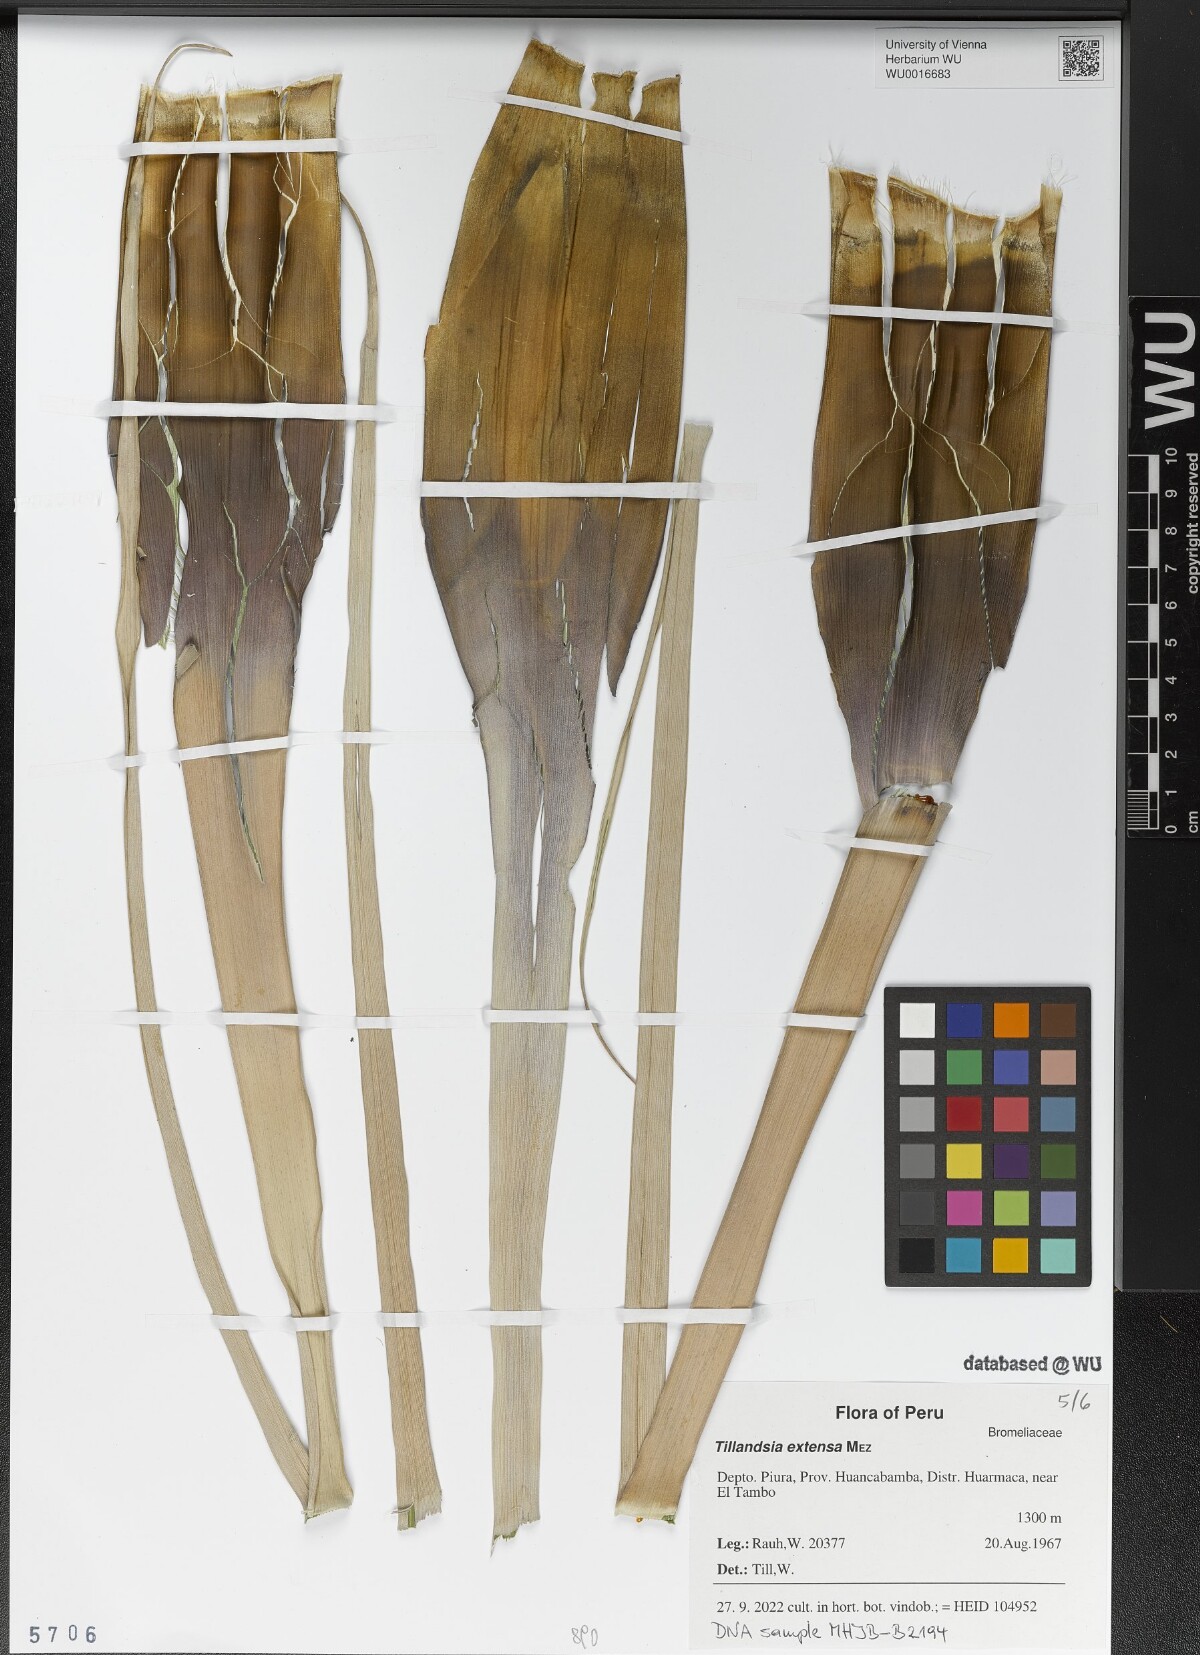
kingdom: Plantae
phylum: Tracheophyta
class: Liliopsida
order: Poales
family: Bromeliaceae
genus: Tillandsia
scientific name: Tillandsia extensa
